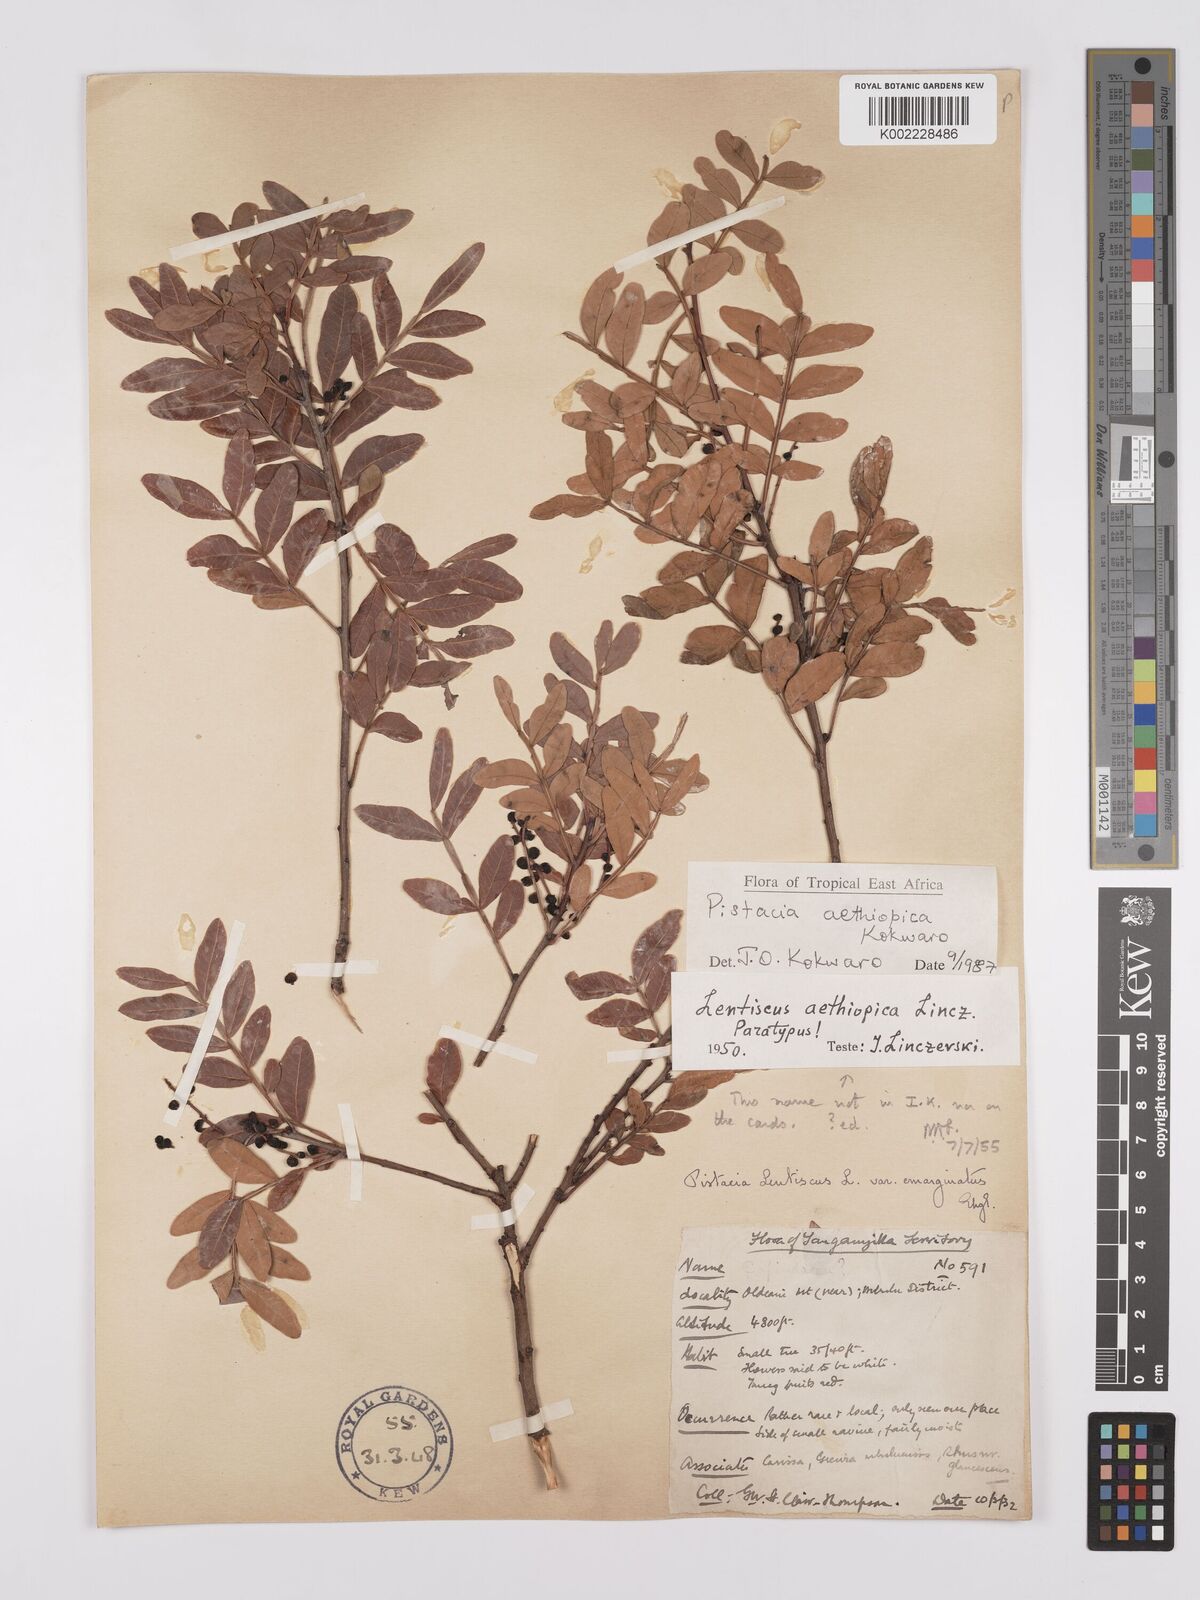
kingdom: Plantae
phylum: Tracheophyta
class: Magnoliopsida
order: Sapindales
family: Anacardiaceae
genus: Pistacia
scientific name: Pistacia lentiscus
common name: Lentisk
